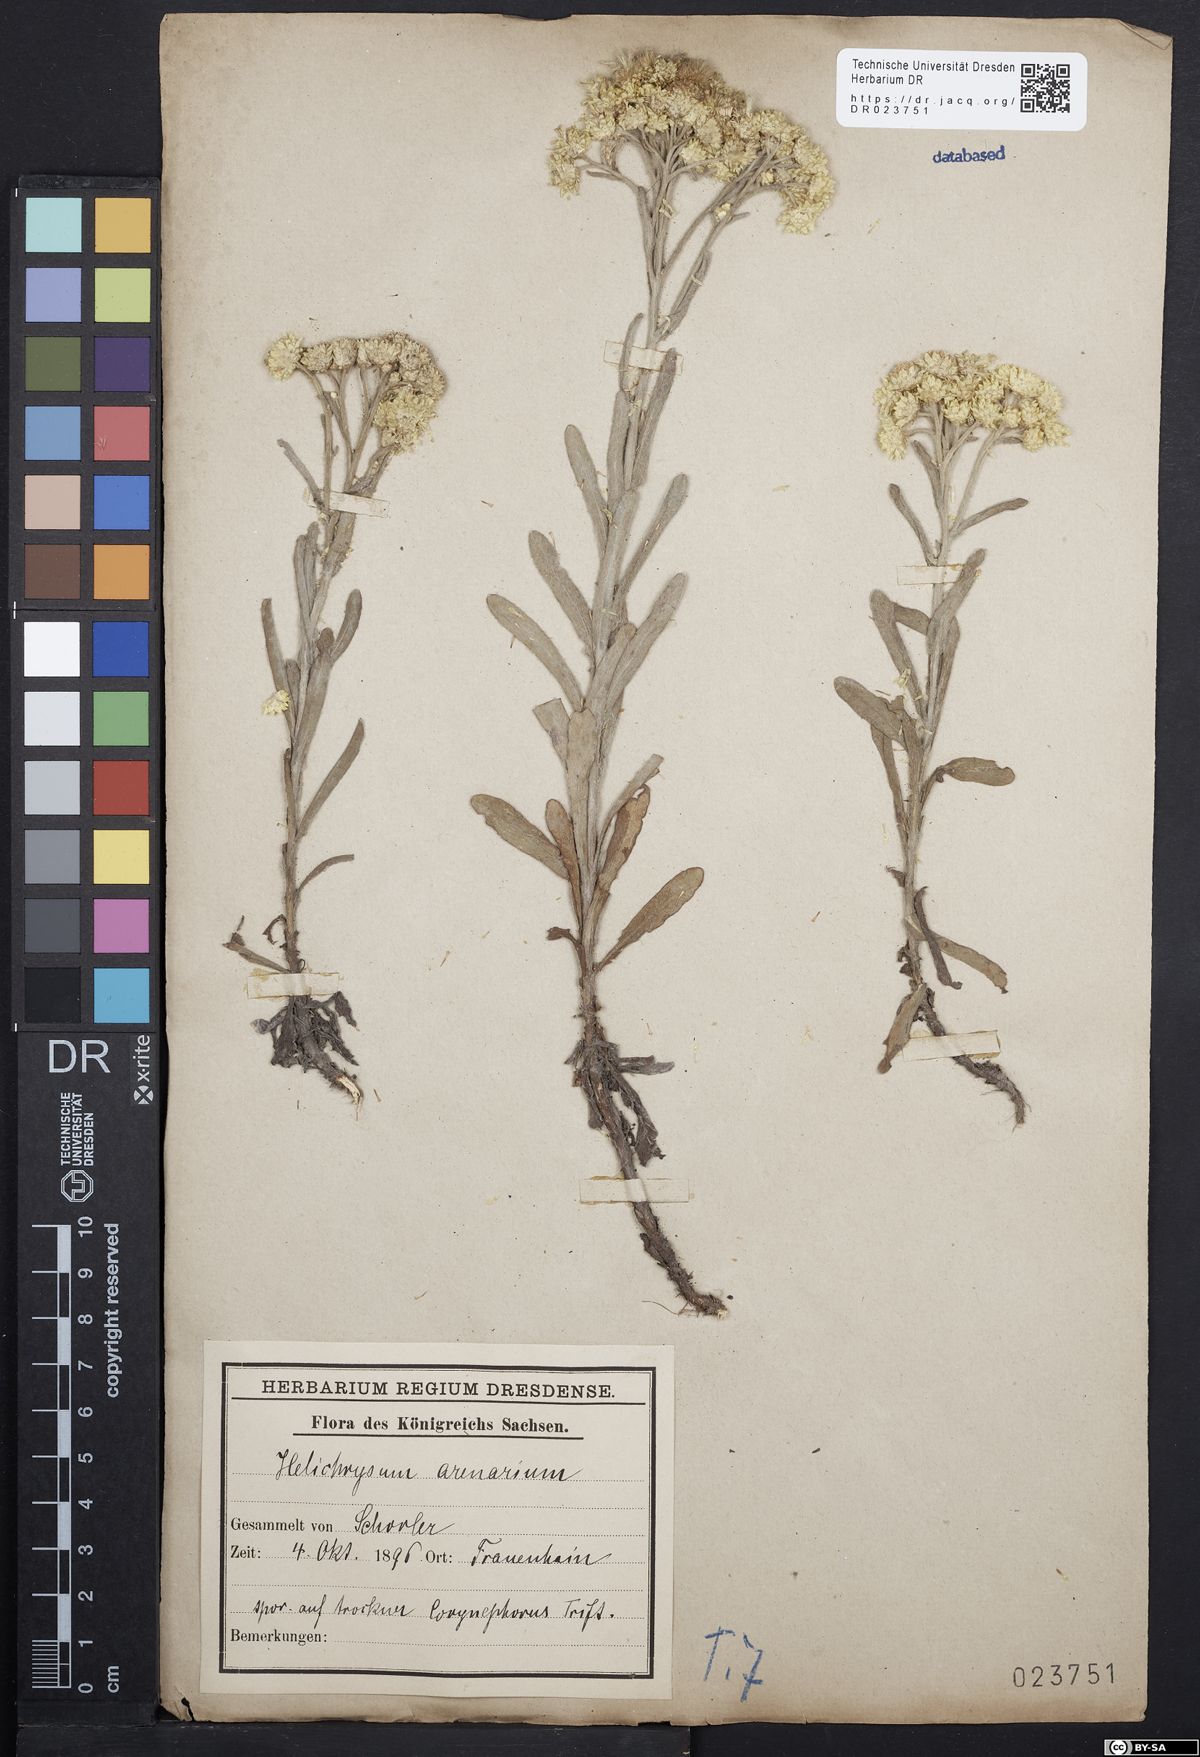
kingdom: Plantae
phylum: Tracheophyta
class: Magnoliopsida
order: Asterales
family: Asteraceae
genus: Helichrysum
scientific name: Helichrysum arenarium
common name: Strawflower
